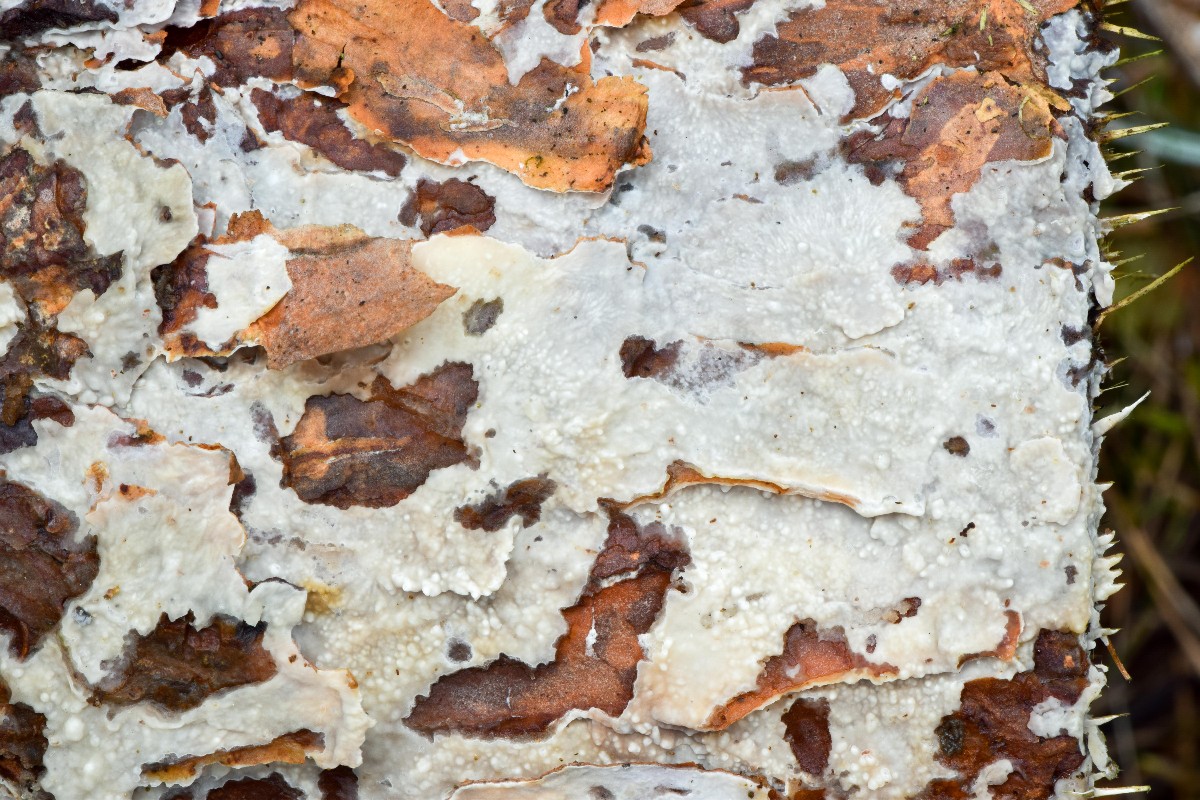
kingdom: Fungi
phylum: Basidiomycota
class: Agaricomycetes
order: Polyporales
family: Phanerochaetaceae
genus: Phlebiopsis
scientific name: Phlebiopsis gigantea
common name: kæmpebarksvamp
